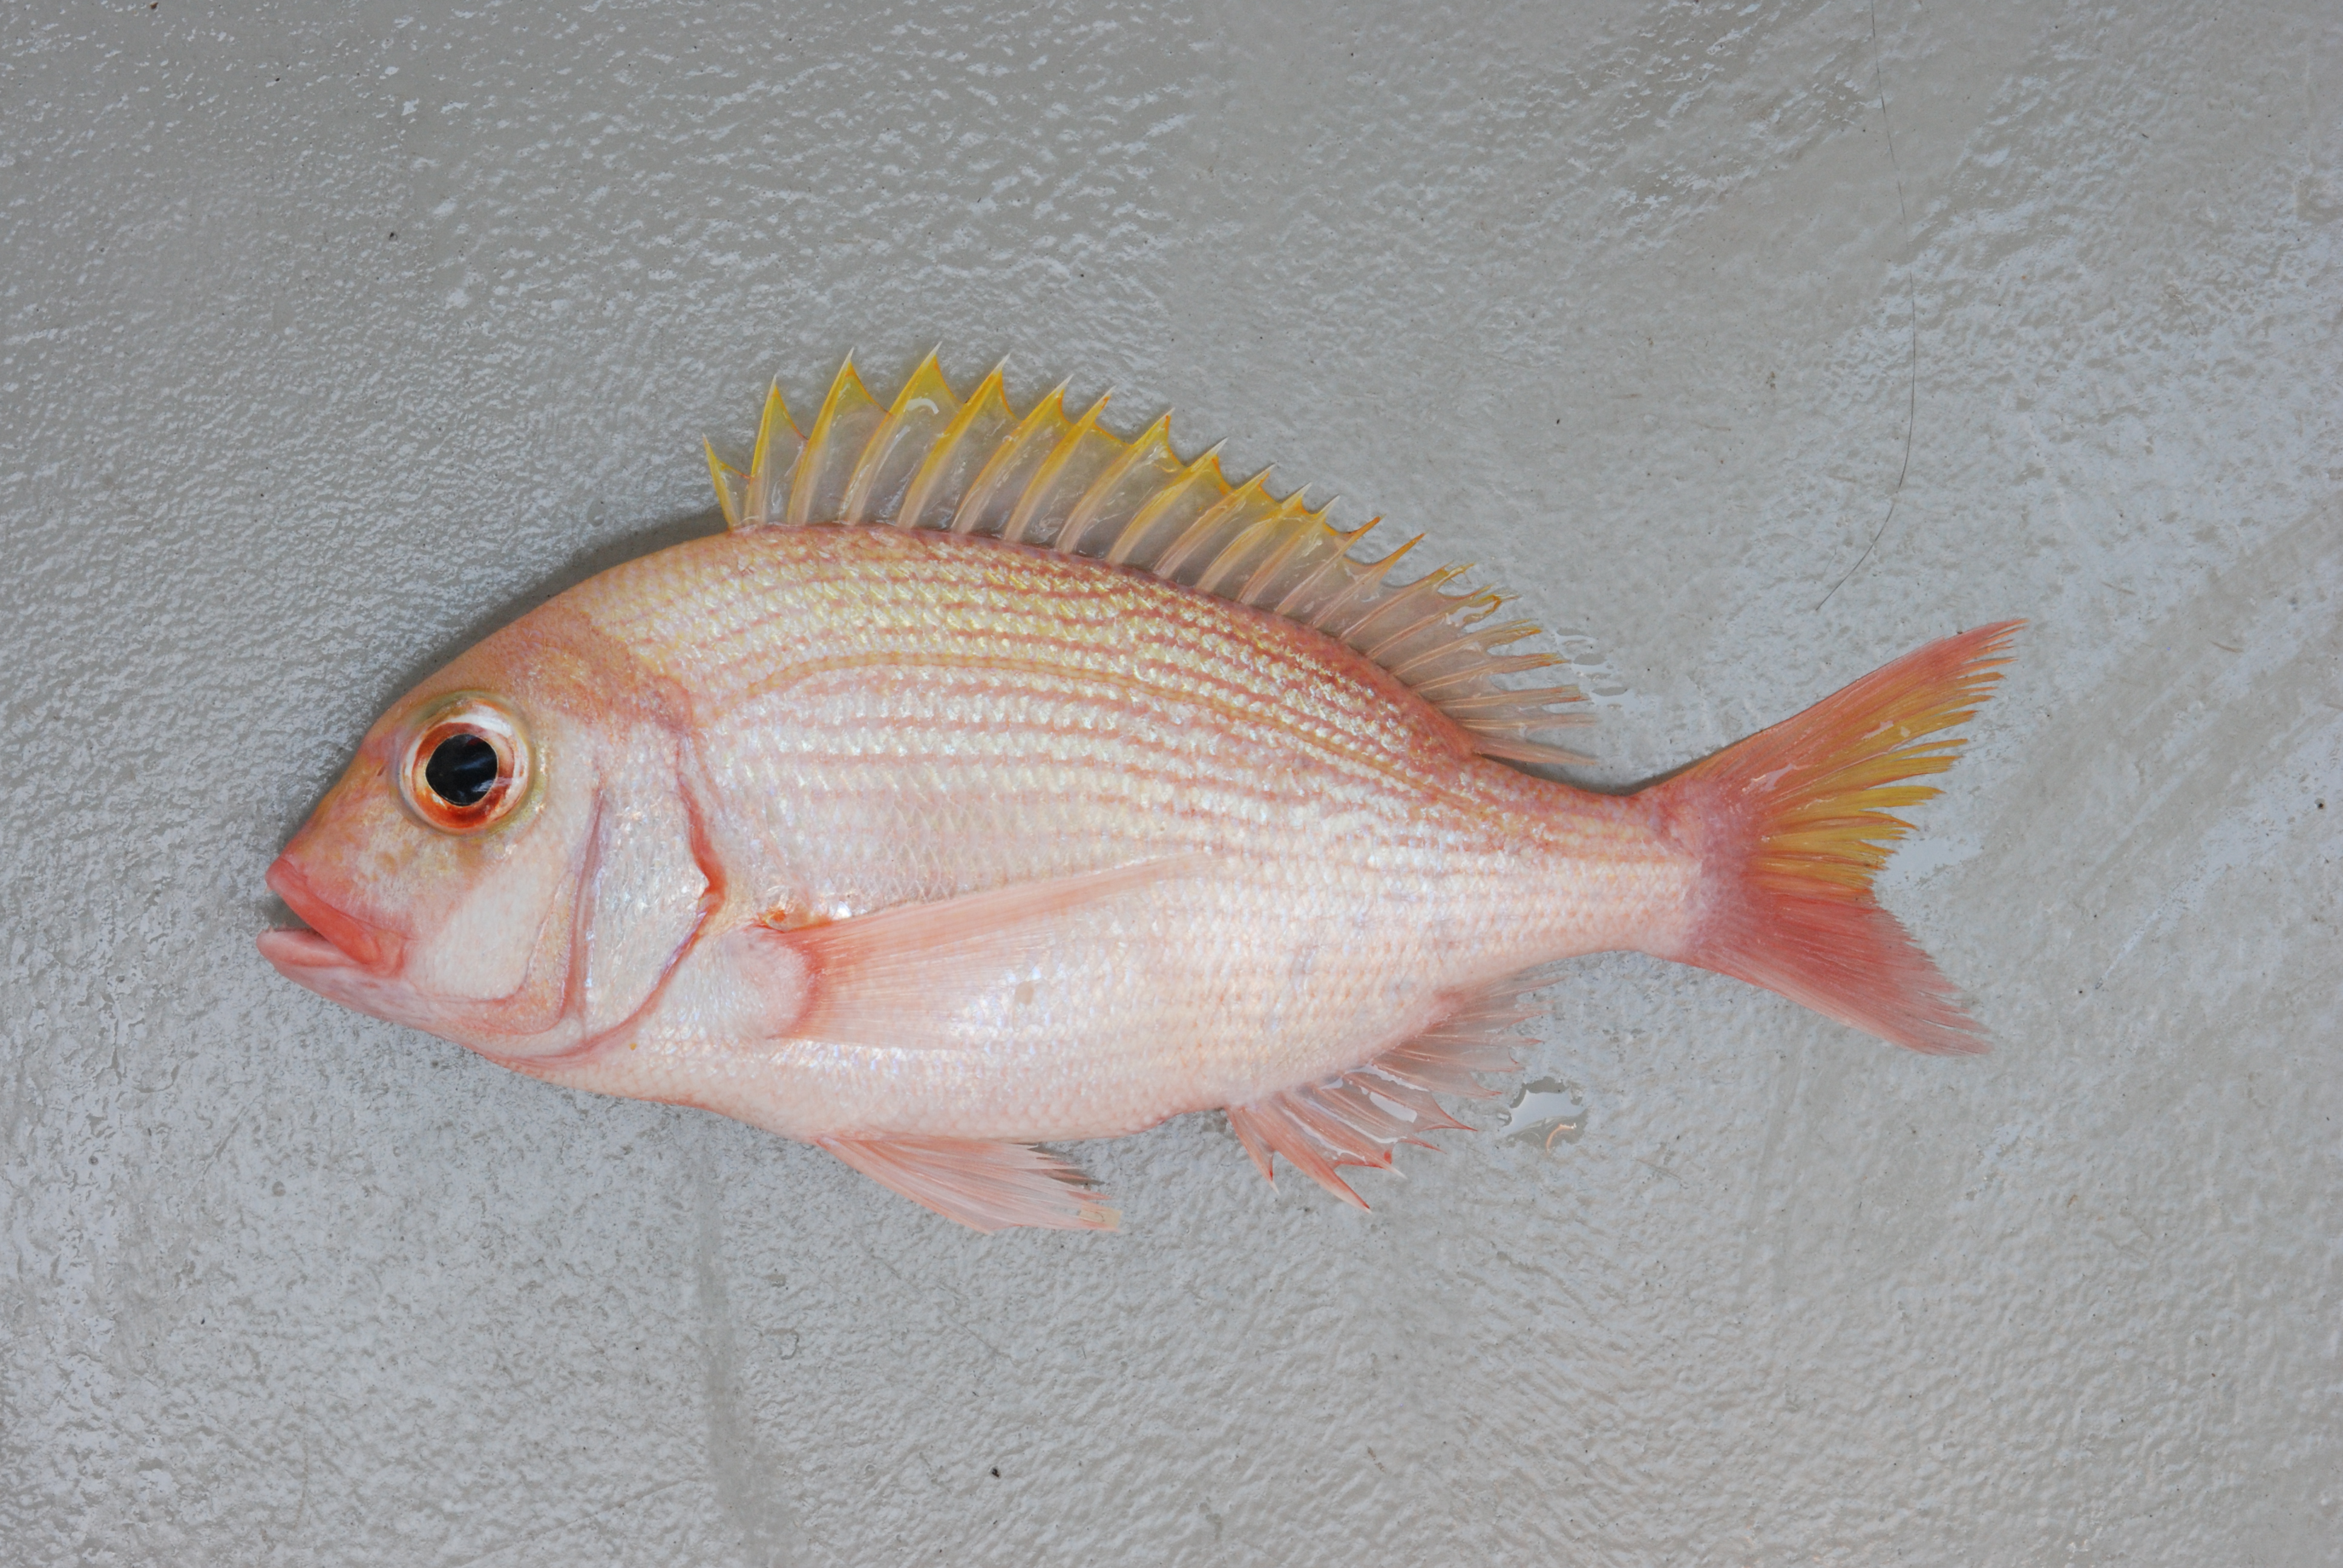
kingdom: Animalia
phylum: Chordata
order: Perciformes
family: Sparidae
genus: Polysteganus
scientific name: Polysteganus flavodorsalis
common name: Yellowfin seabream
